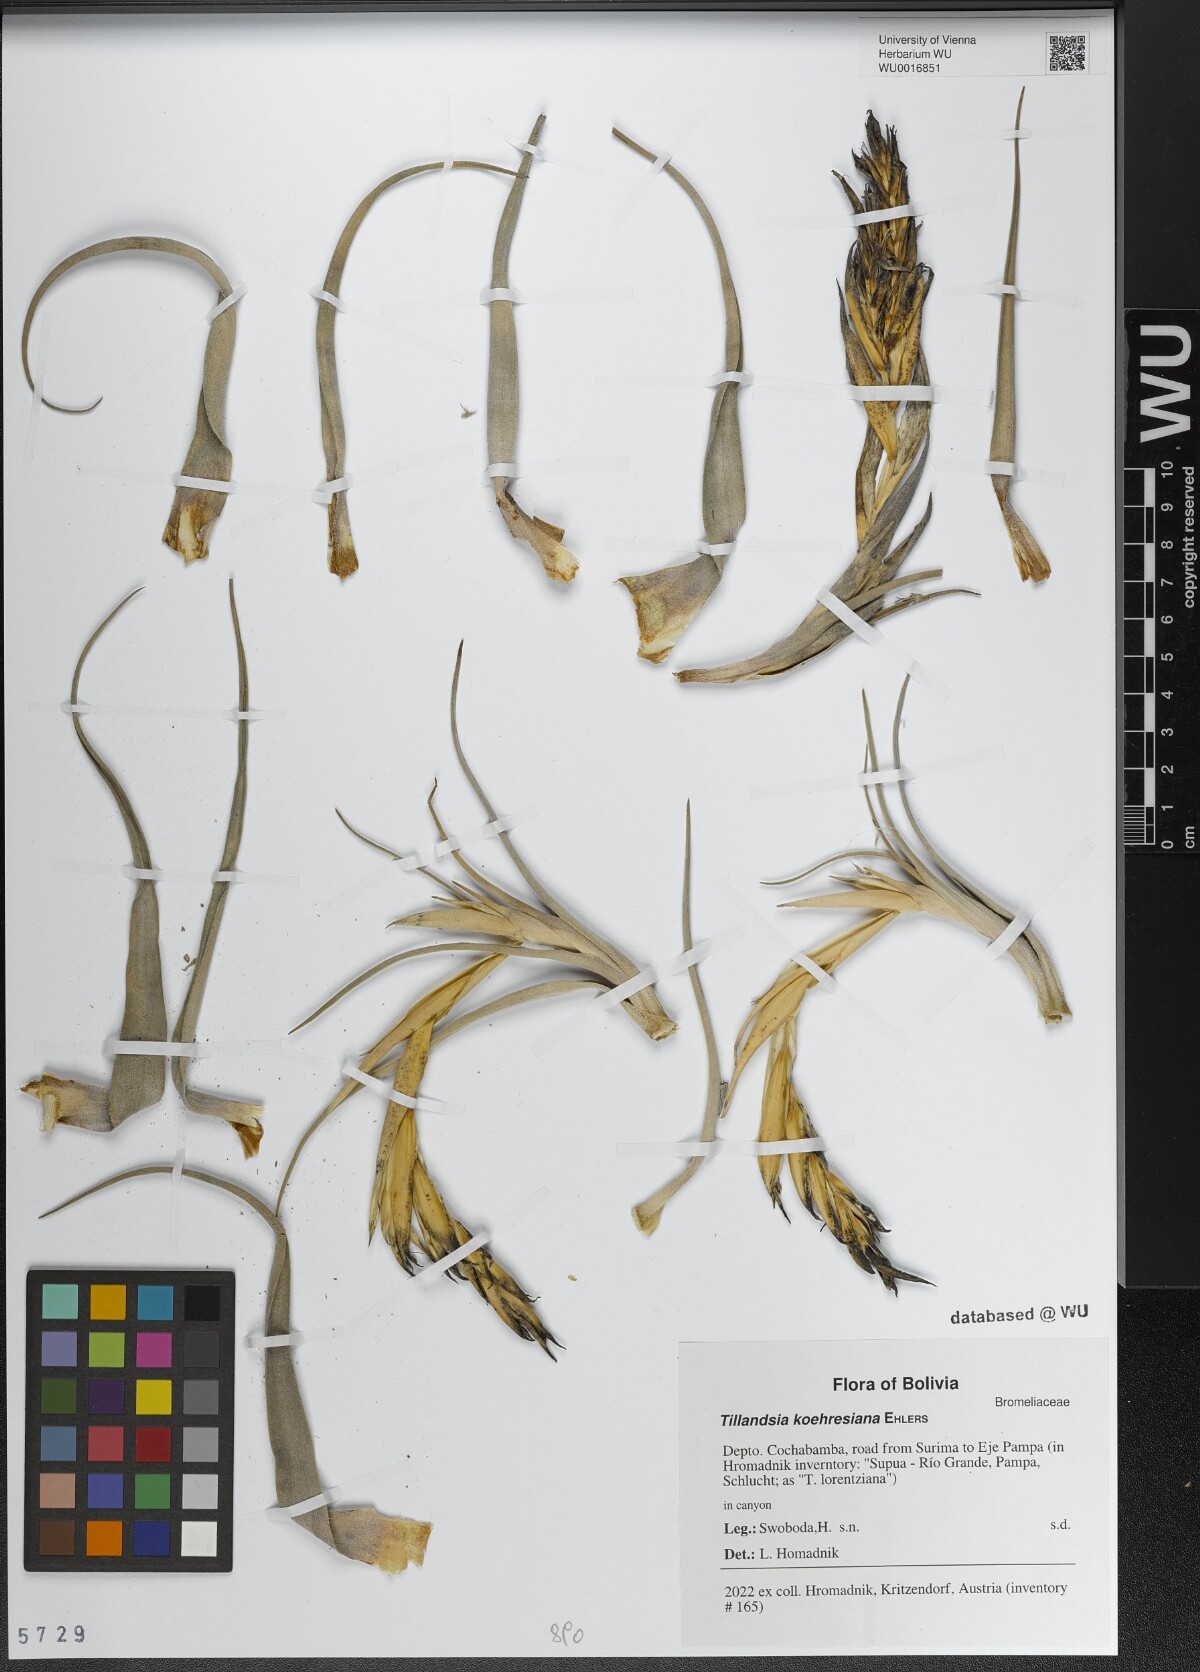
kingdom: Plantae
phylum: Tracheophyta
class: Liliopsida
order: Poales
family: Bromeliaceae
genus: Tillandsia
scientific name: Tillandsia koehresiana
